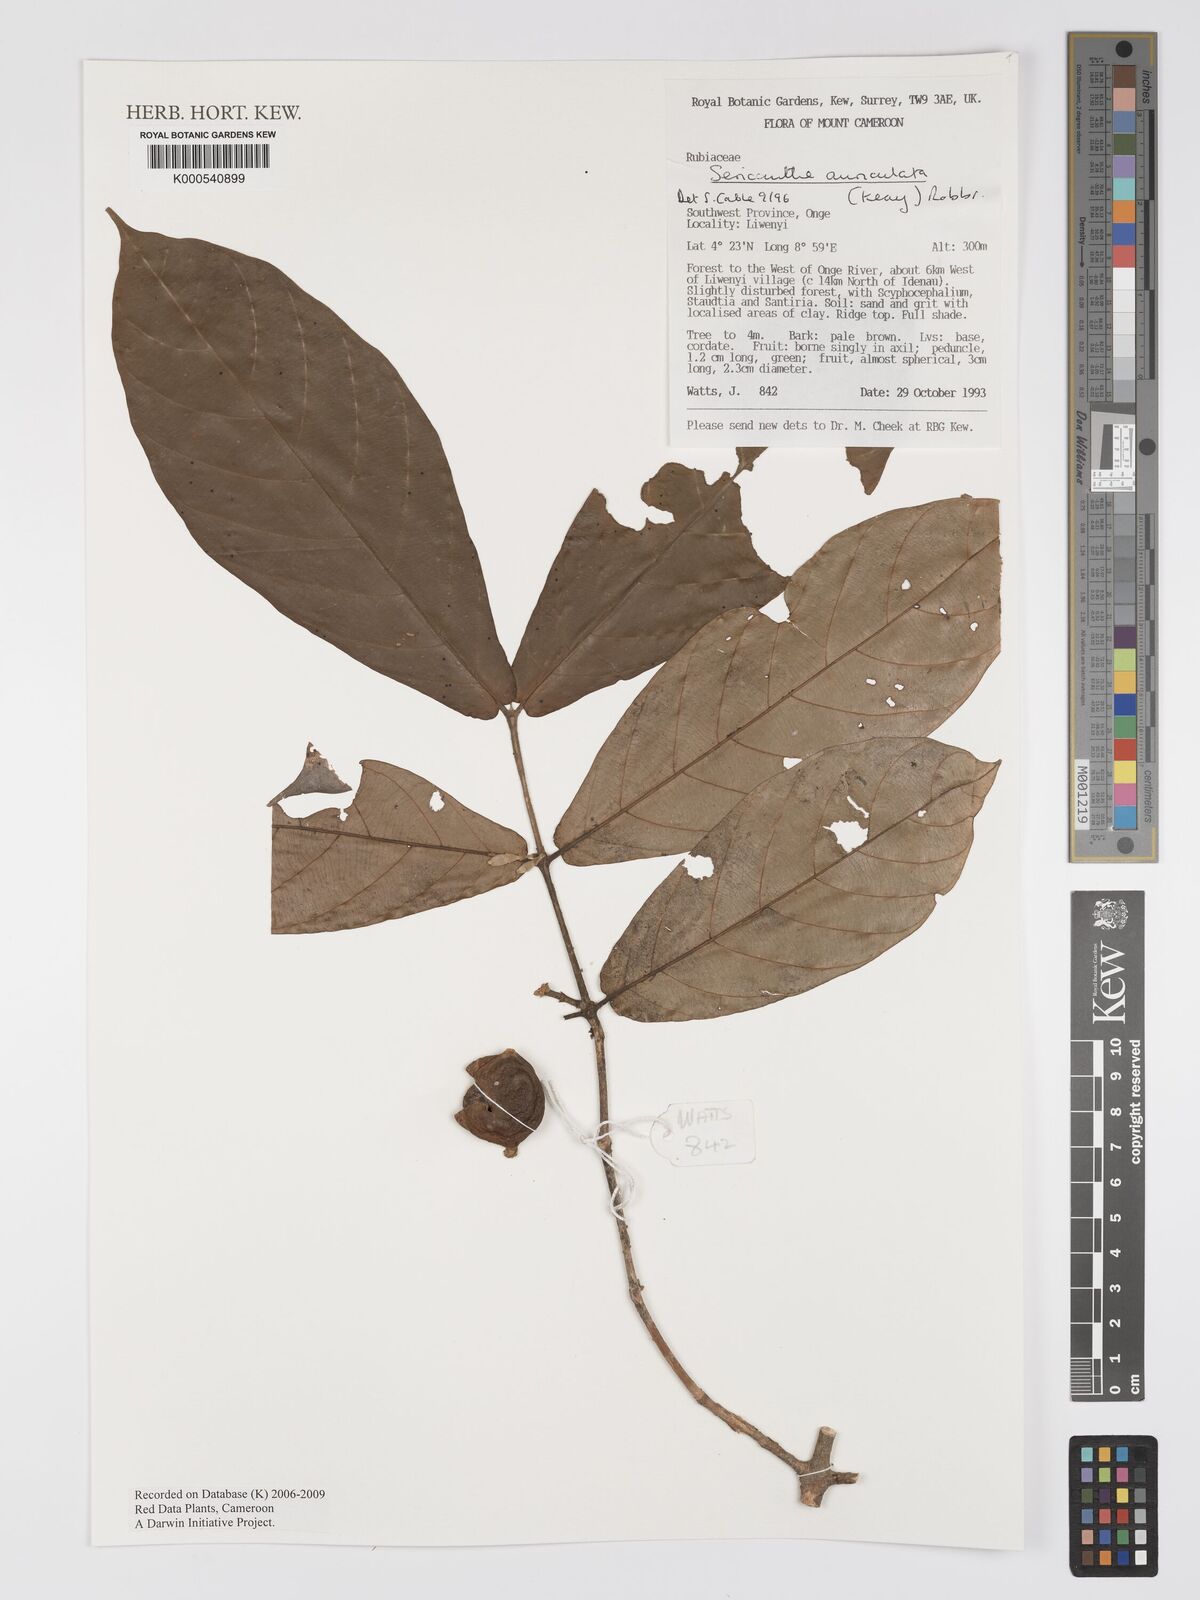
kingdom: Plantae
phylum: Tracheophyta
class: Magnoliopsida
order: Gentianales
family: Rubiaceae
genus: Sericanthe
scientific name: Sericanthe auriculata
